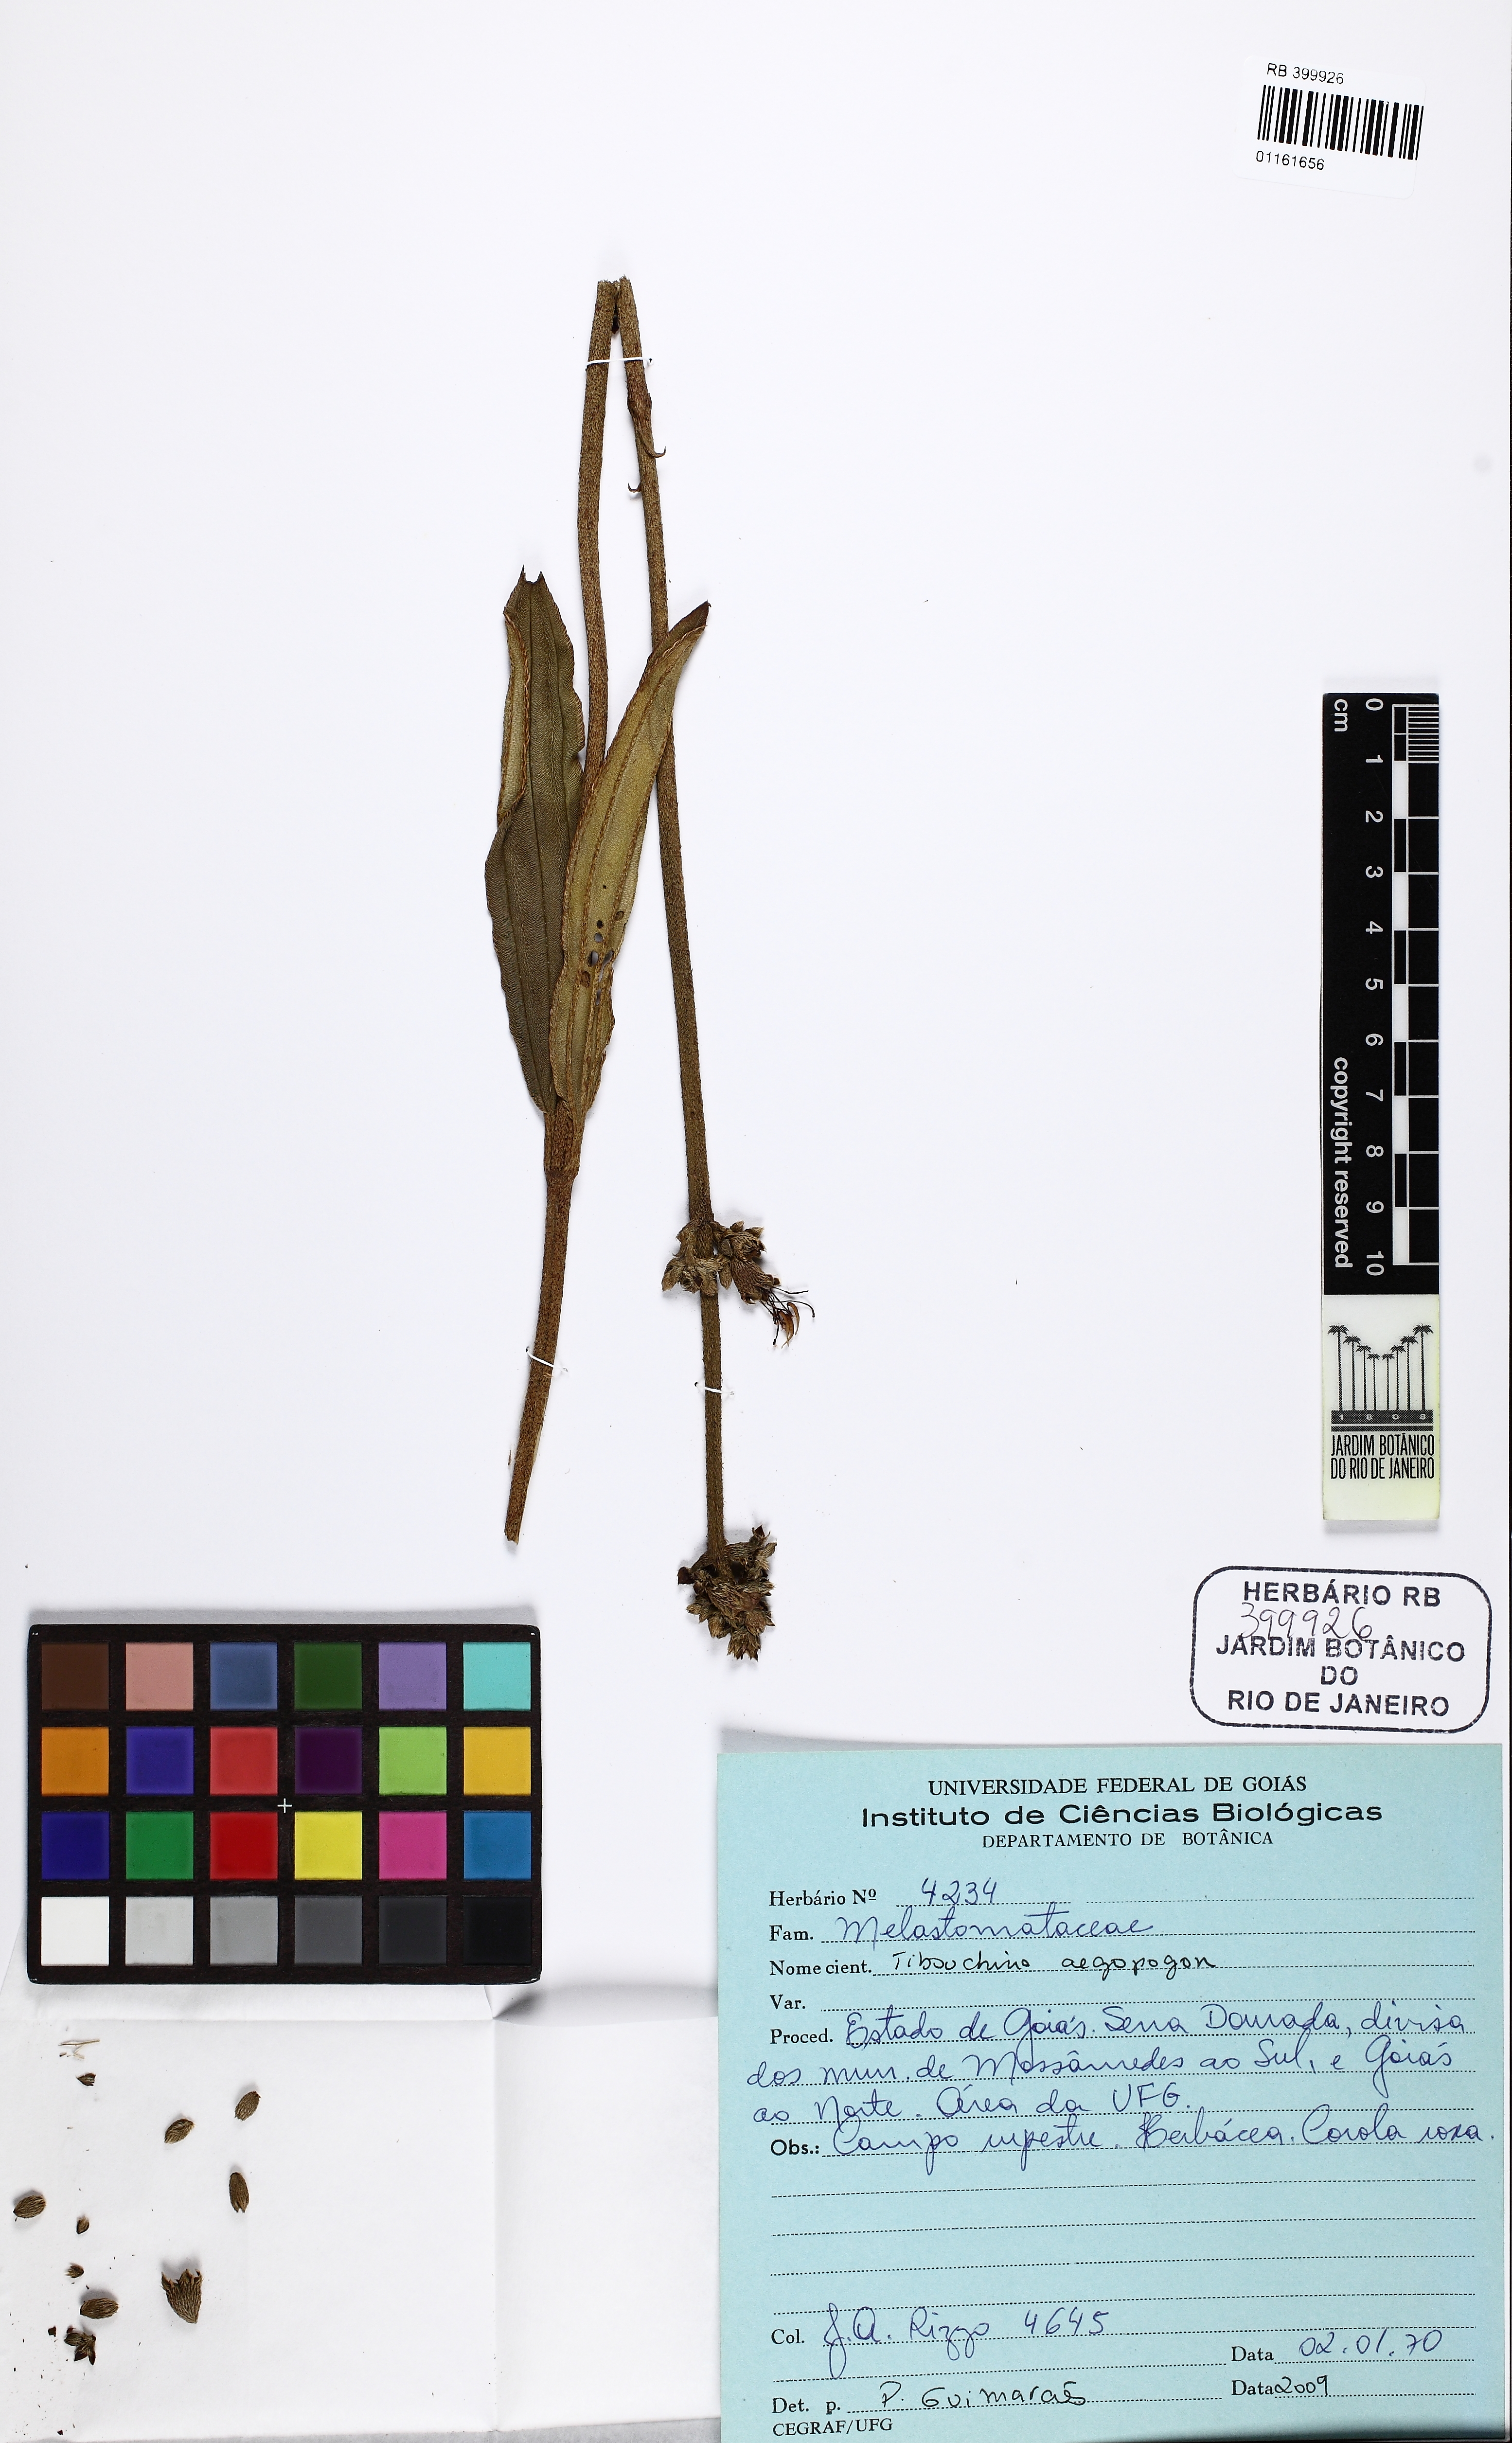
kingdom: Plantae
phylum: Tracheophyta
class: Magnoliopsida
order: Myrtales
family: Melastomataceae
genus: Pleroma
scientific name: Pleroma aegopogon
